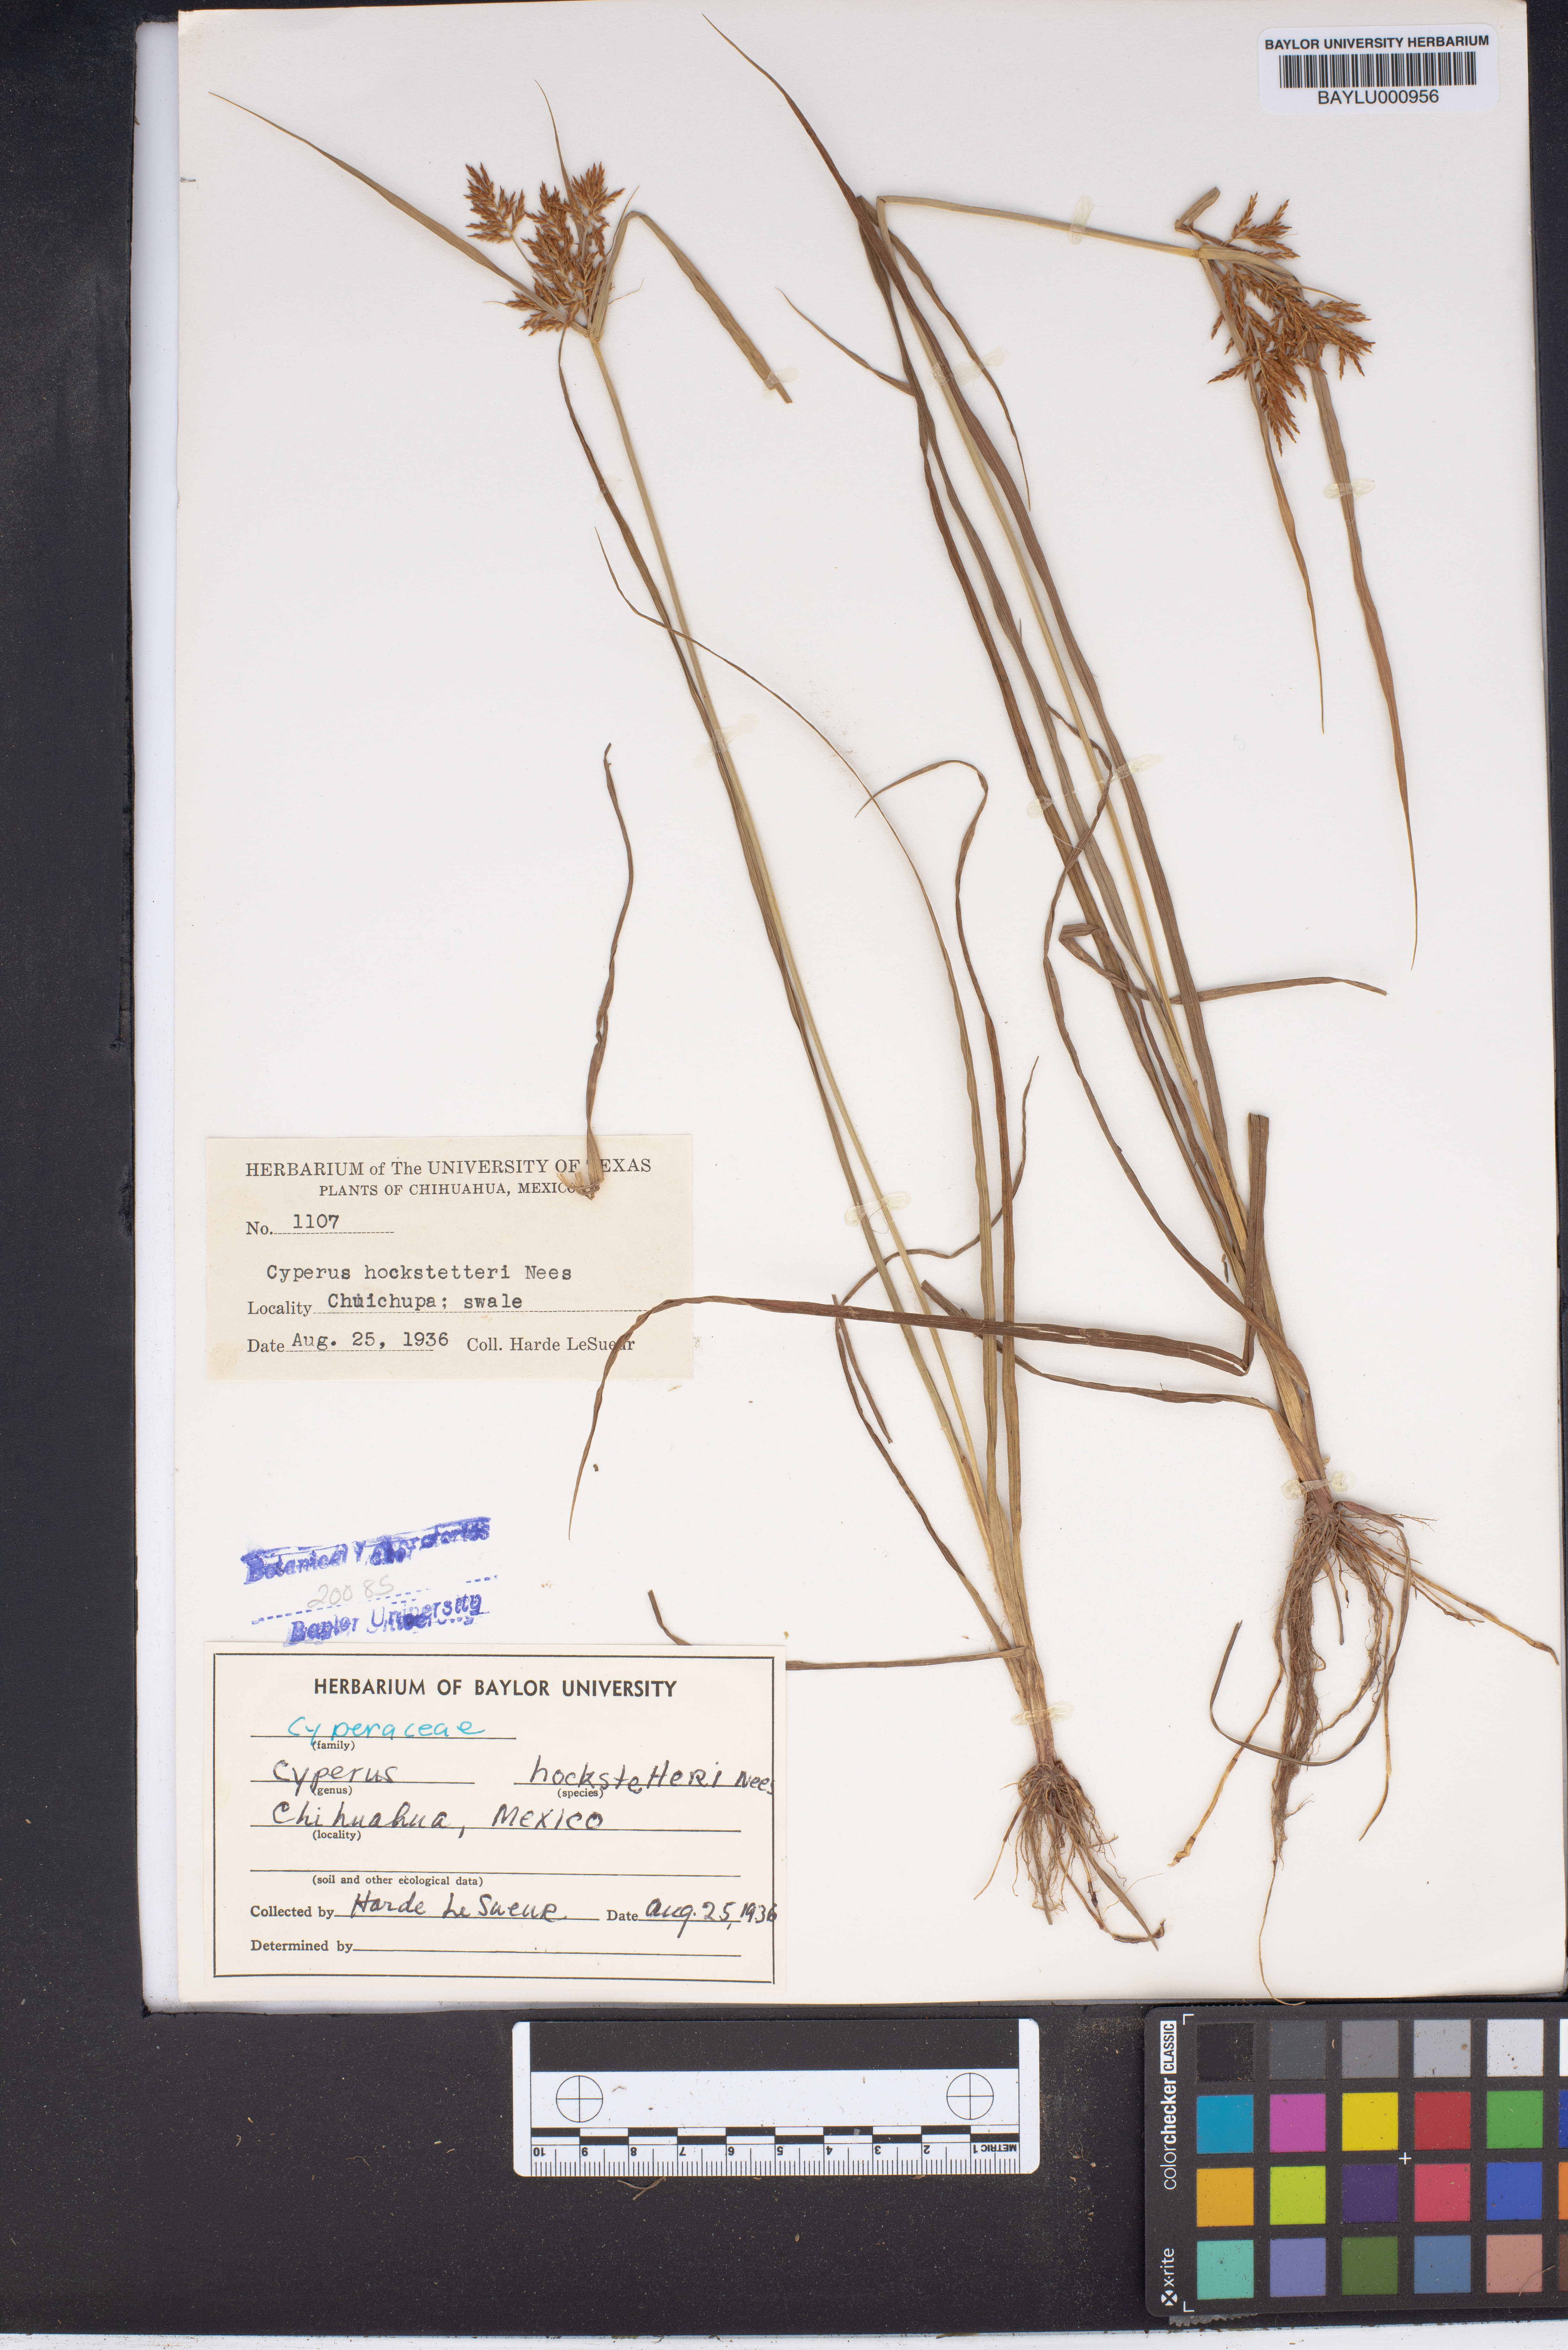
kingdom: Plantae
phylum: Tracheophyta
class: Liliopsida
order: Poales
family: Cyperaceae
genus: Cyperus
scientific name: Cyperus macrostachyos
